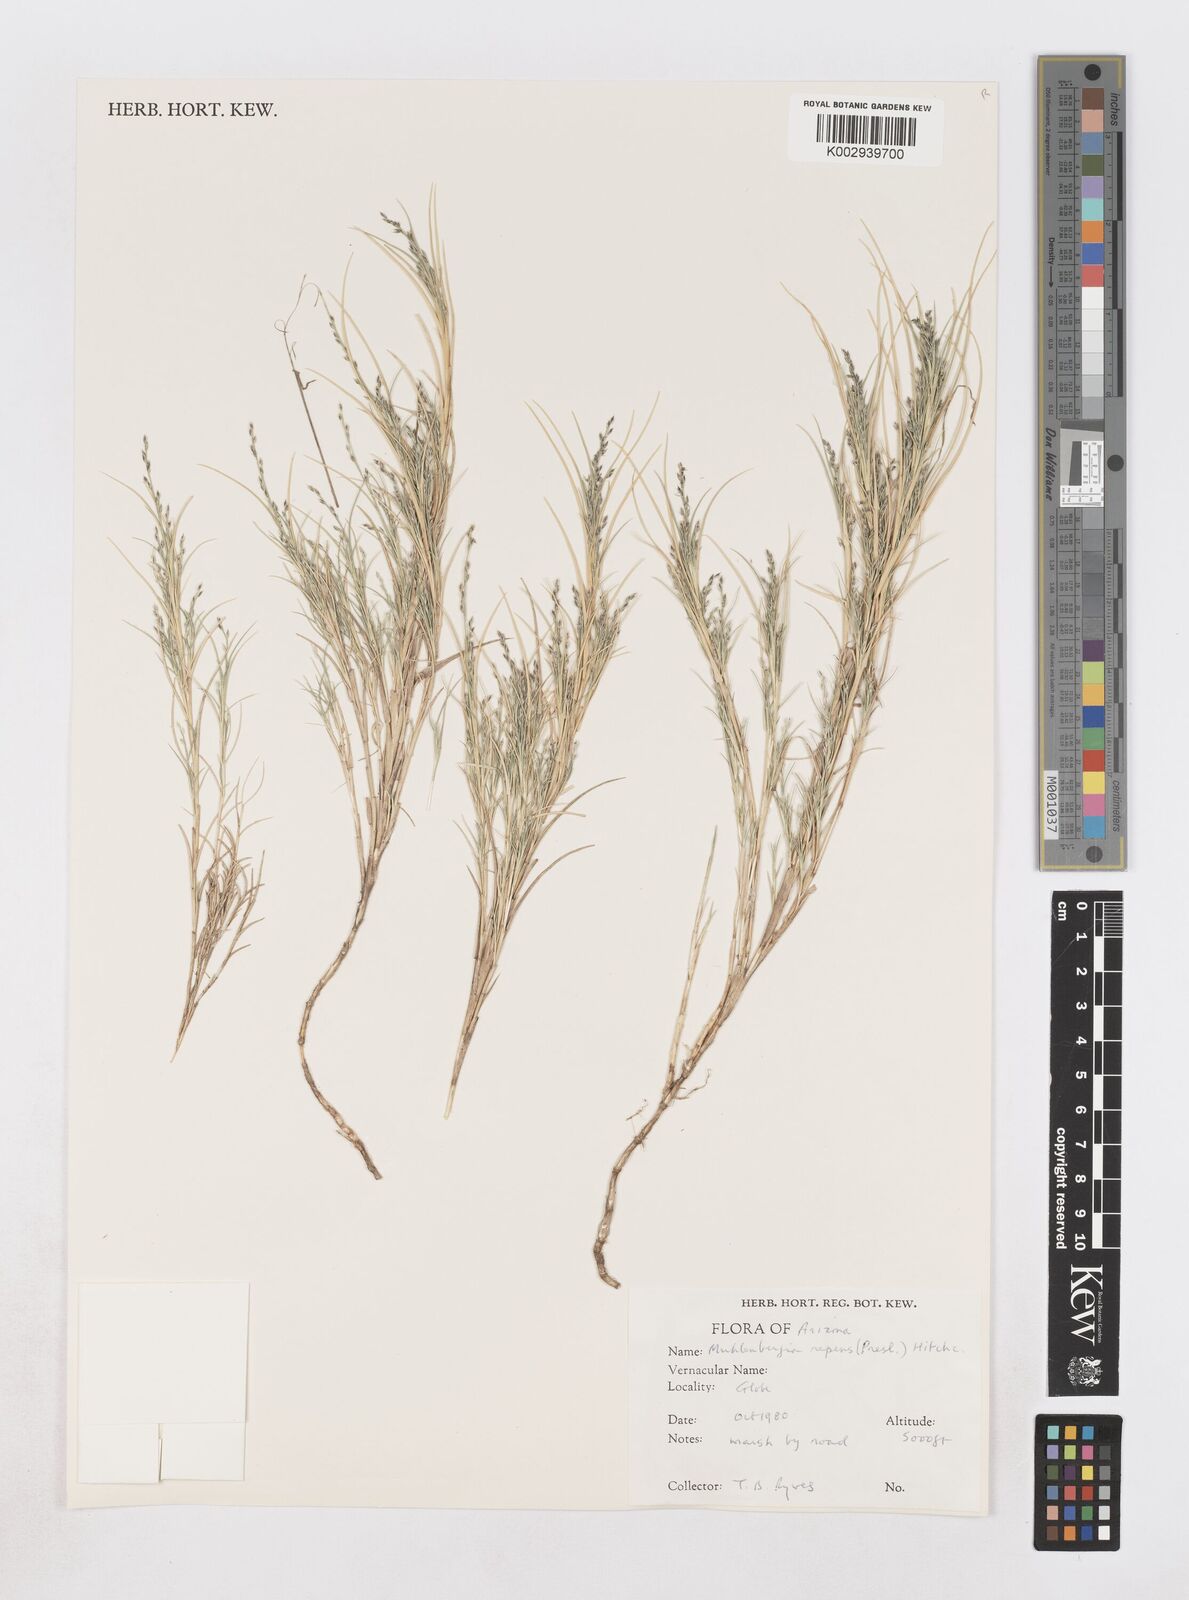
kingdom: Plantae
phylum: Tracheophyta
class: Liliopsida
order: Poales
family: Poaceae
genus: Muhlenbergia
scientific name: Muhlenbergia repens
